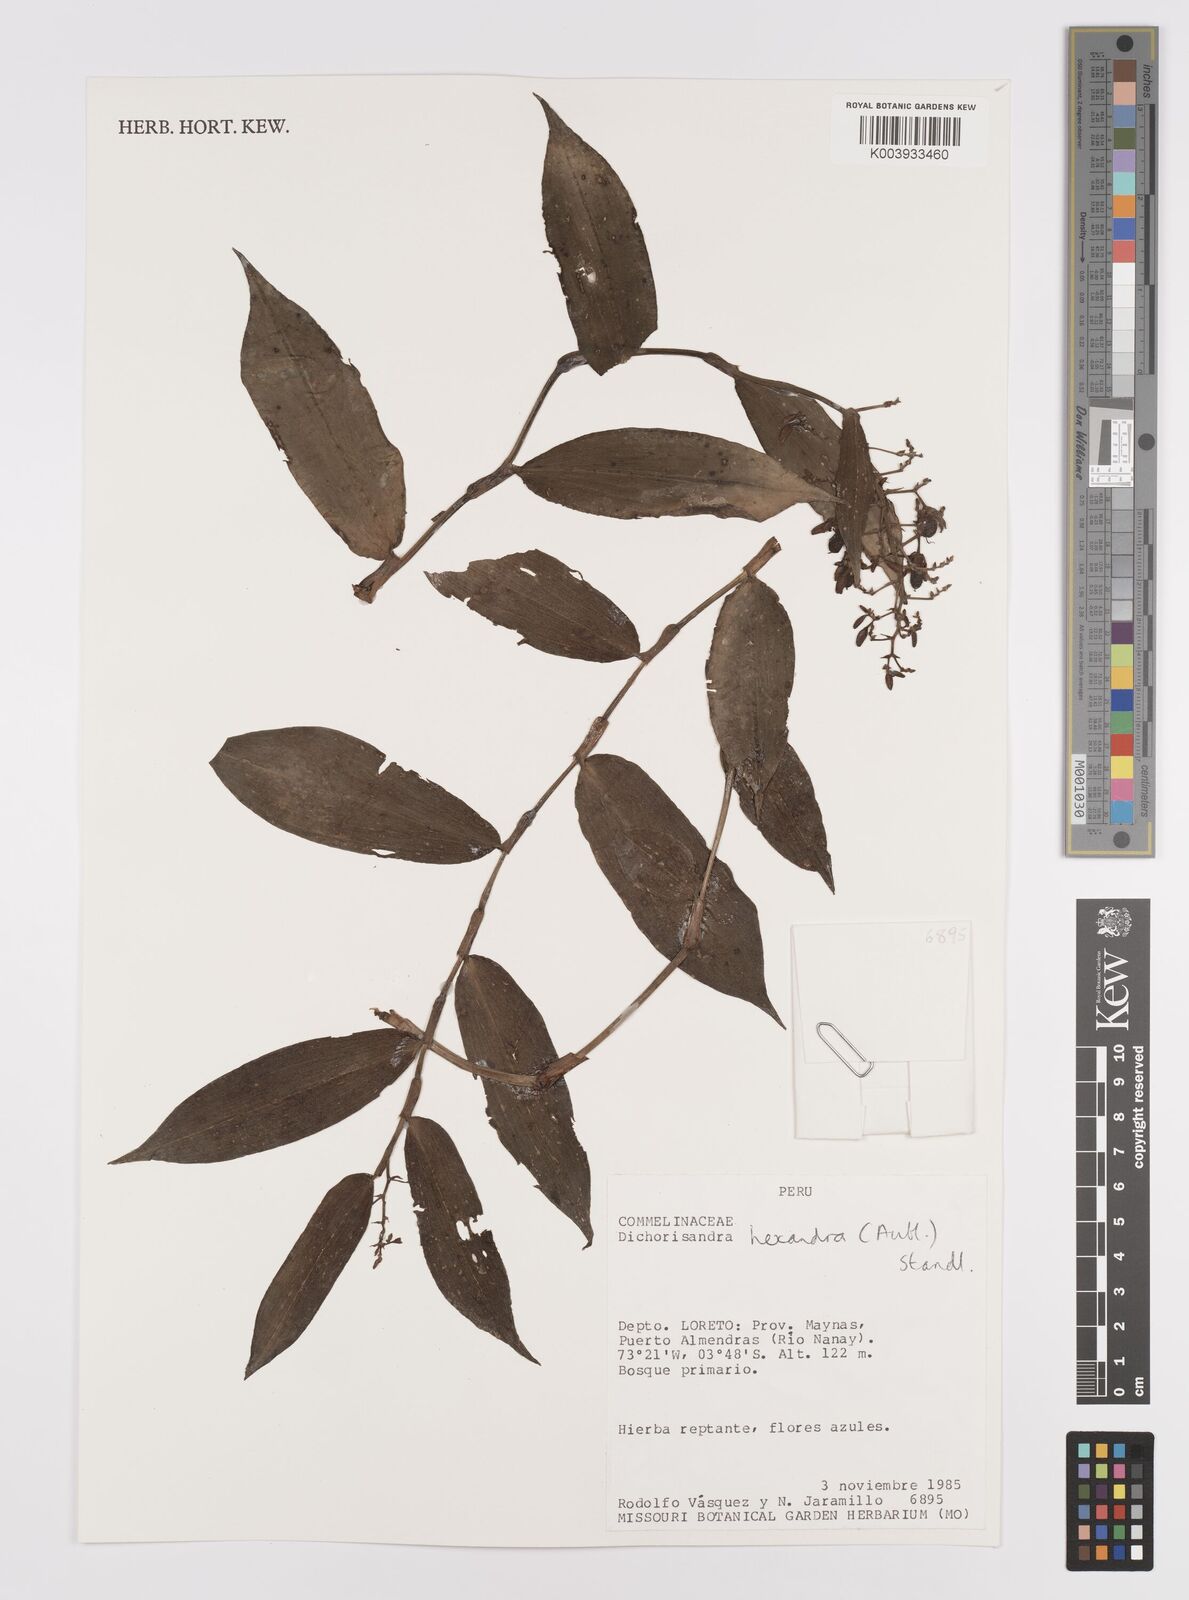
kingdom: Plantae
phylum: Tracheophyta
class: Liliopsida
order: Commelinales
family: Commelinaceae
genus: Dichorisandra
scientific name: Dichorisandra hexandra
